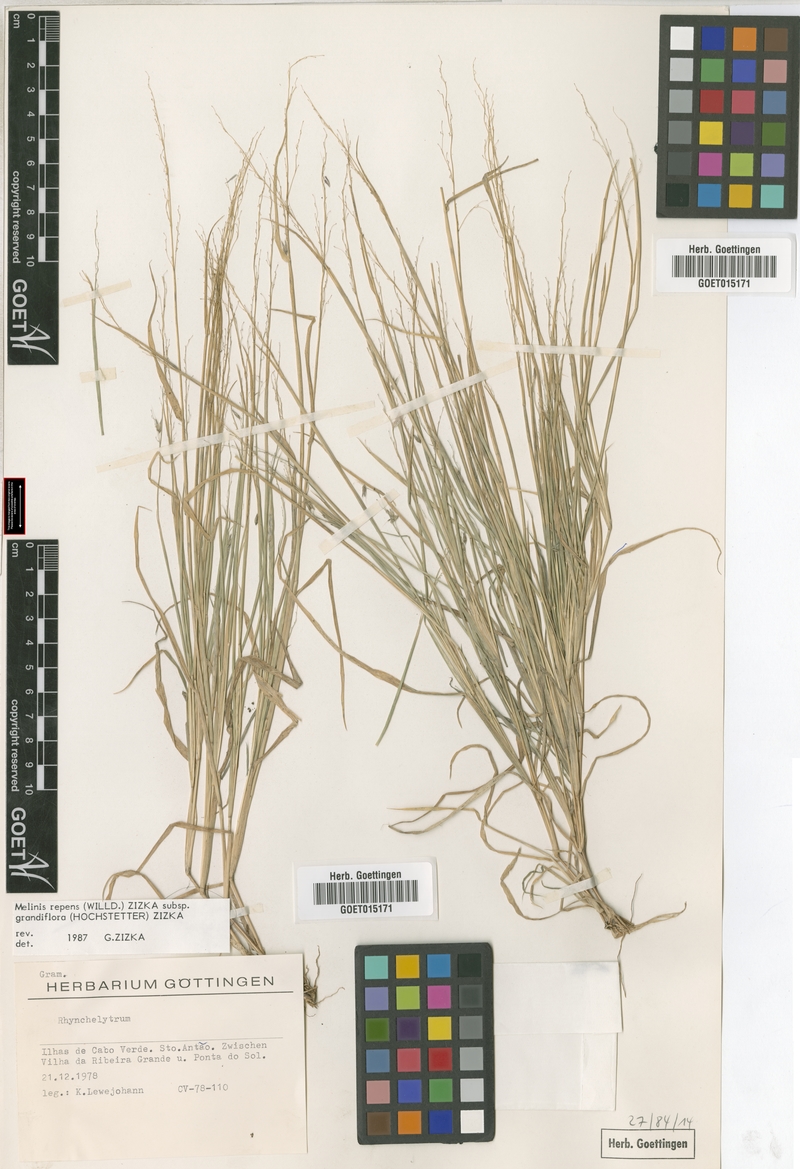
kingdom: Plantae
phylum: Tracheophyta
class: Liliopsida
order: Poales
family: Poaceae
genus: Melinis
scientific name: Melinis repens
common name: Rose natal grass
